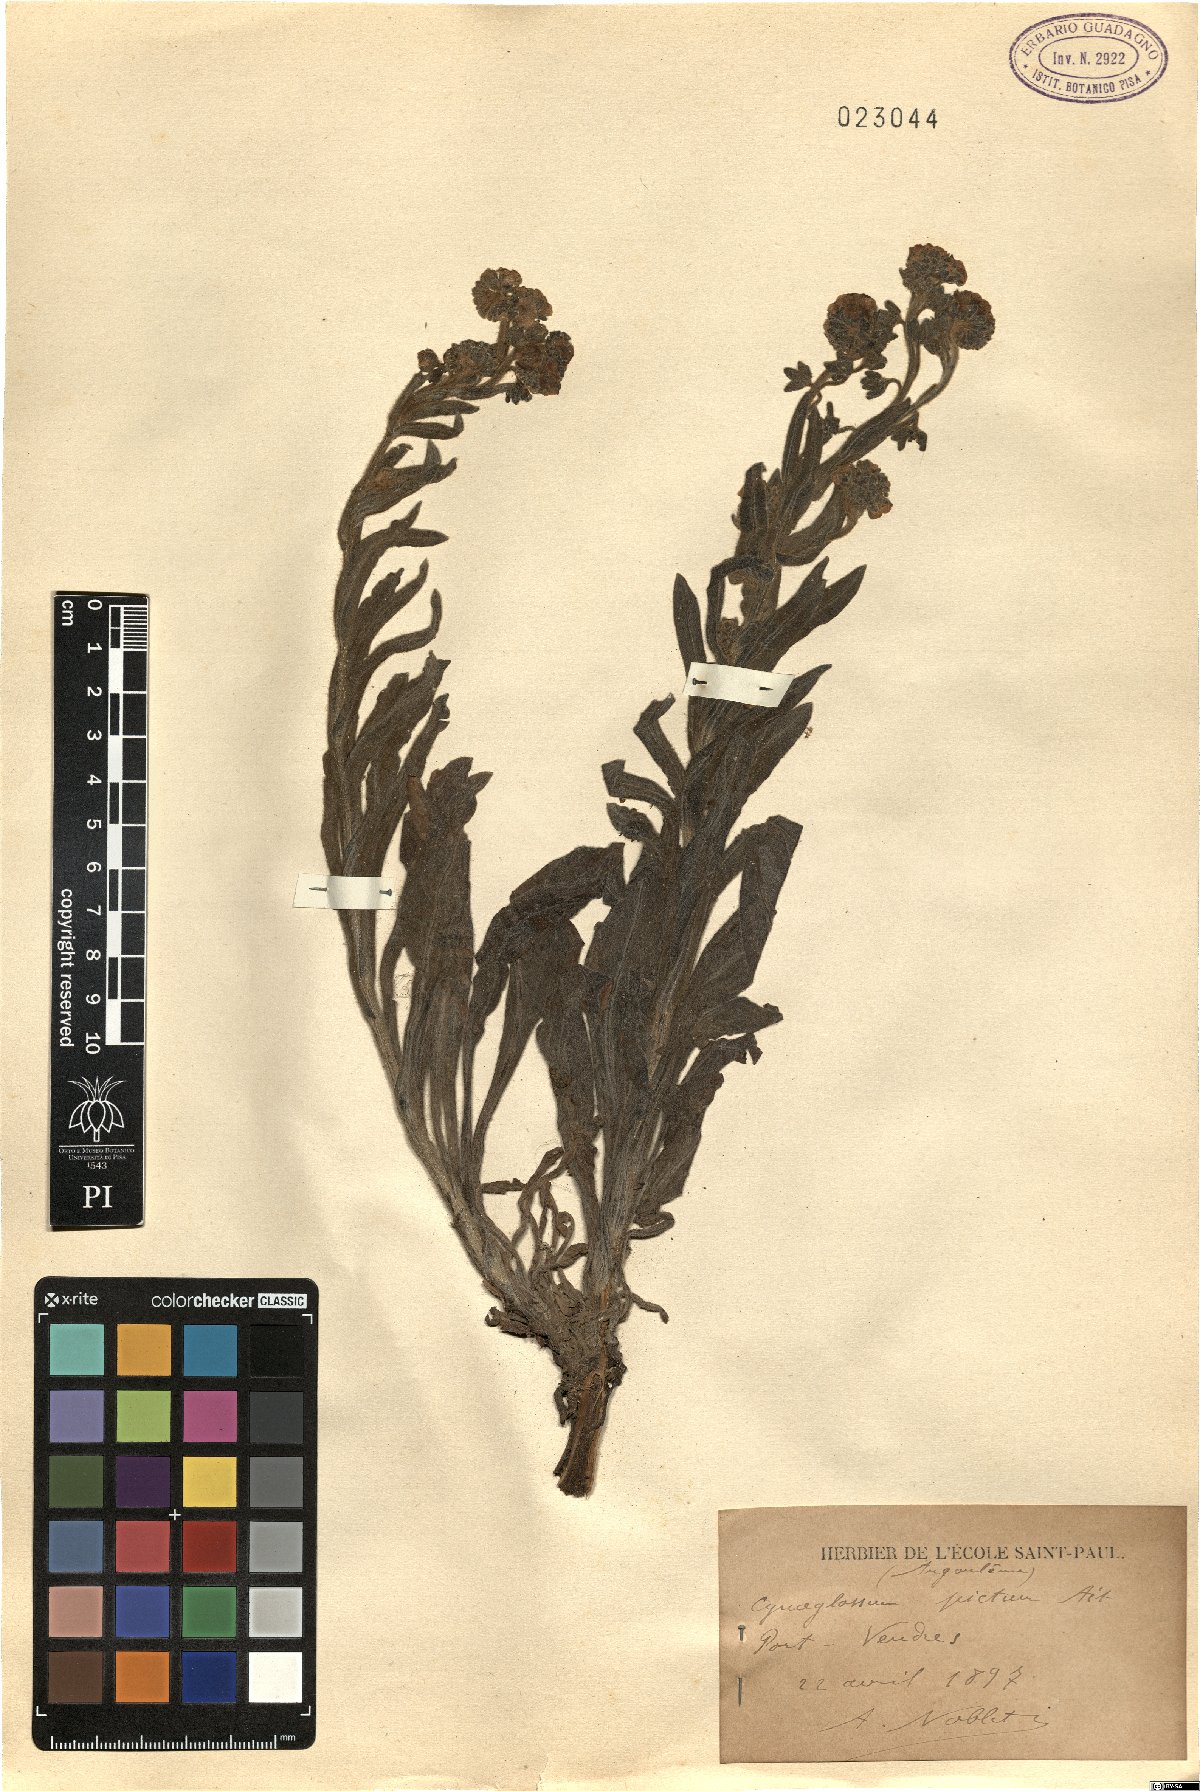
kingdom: Plantae
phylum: Tracheophyta
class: Magnoliopsida
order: Boraginales
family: Boraginaceae
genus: Cynoglossum
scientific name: Cynoglossum creticum
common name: Blue hound's tongue
